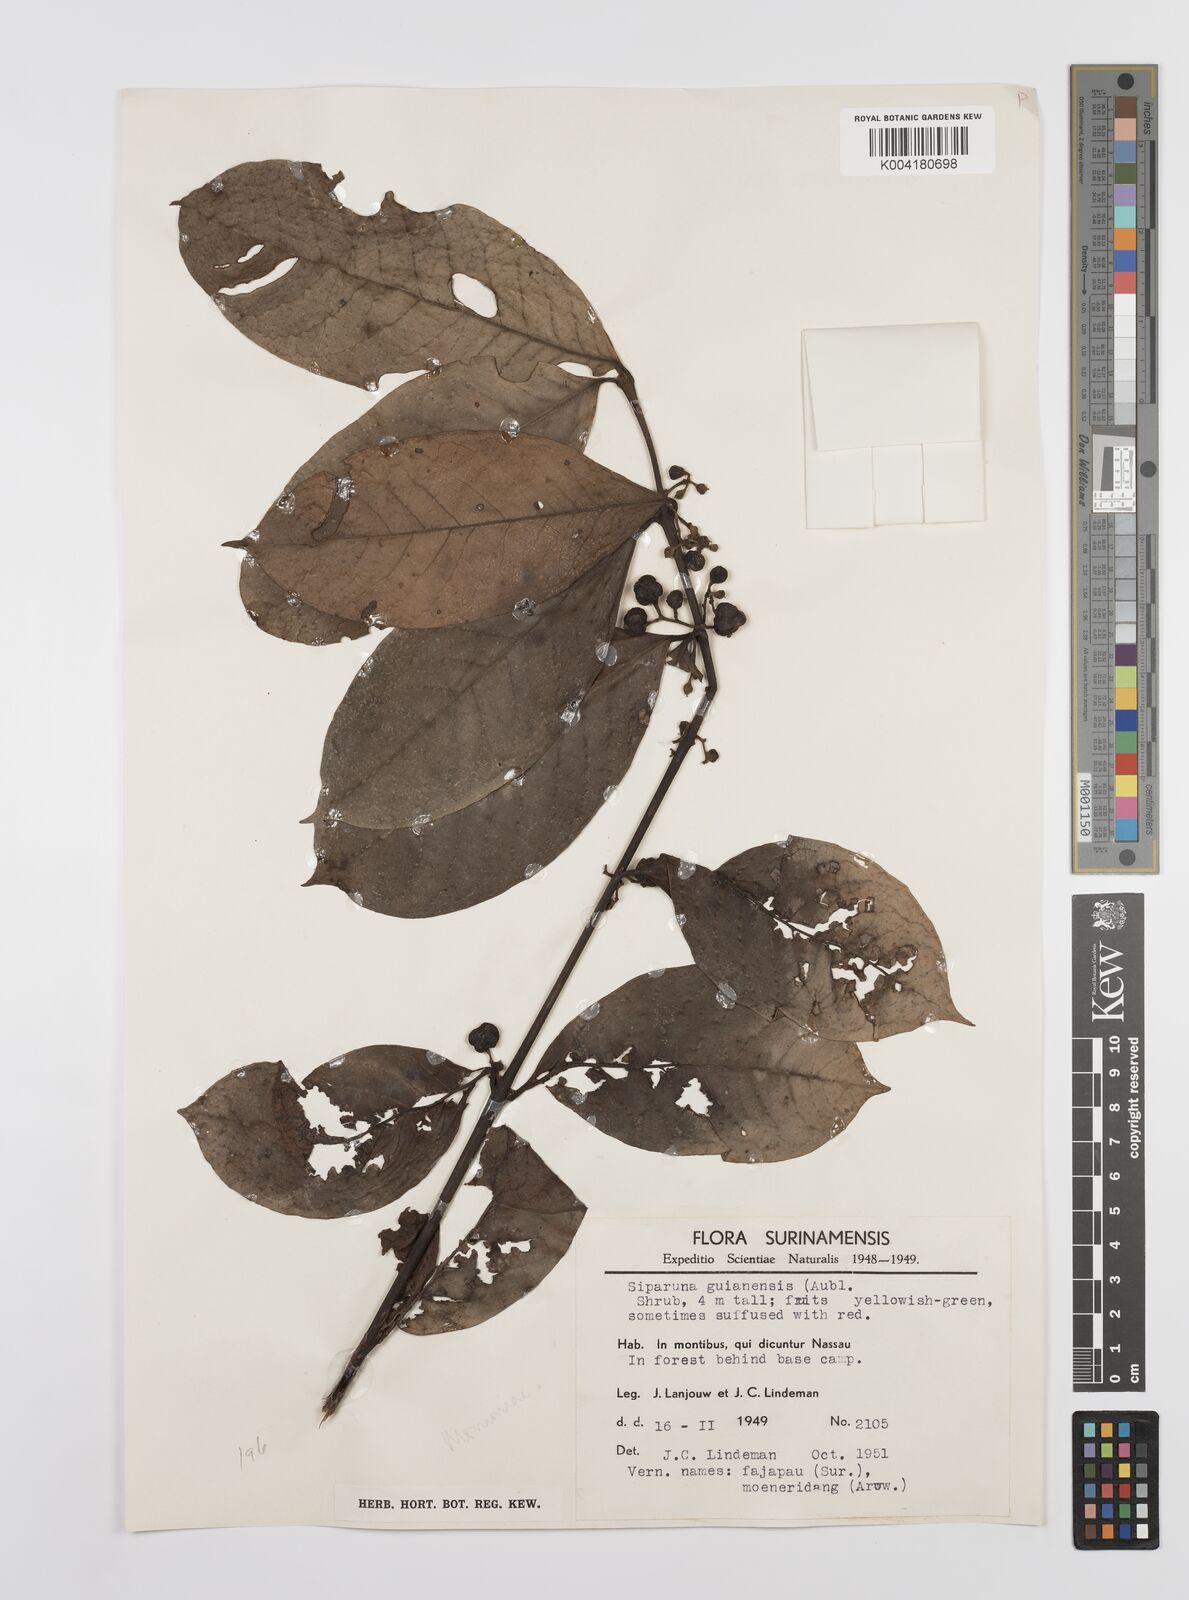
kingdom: Plantae
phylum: Tracheophyta
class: Magnoliopsida
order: Laurales
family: Siparunaceae
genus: Siparuna
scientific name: Siparuna guianensis
